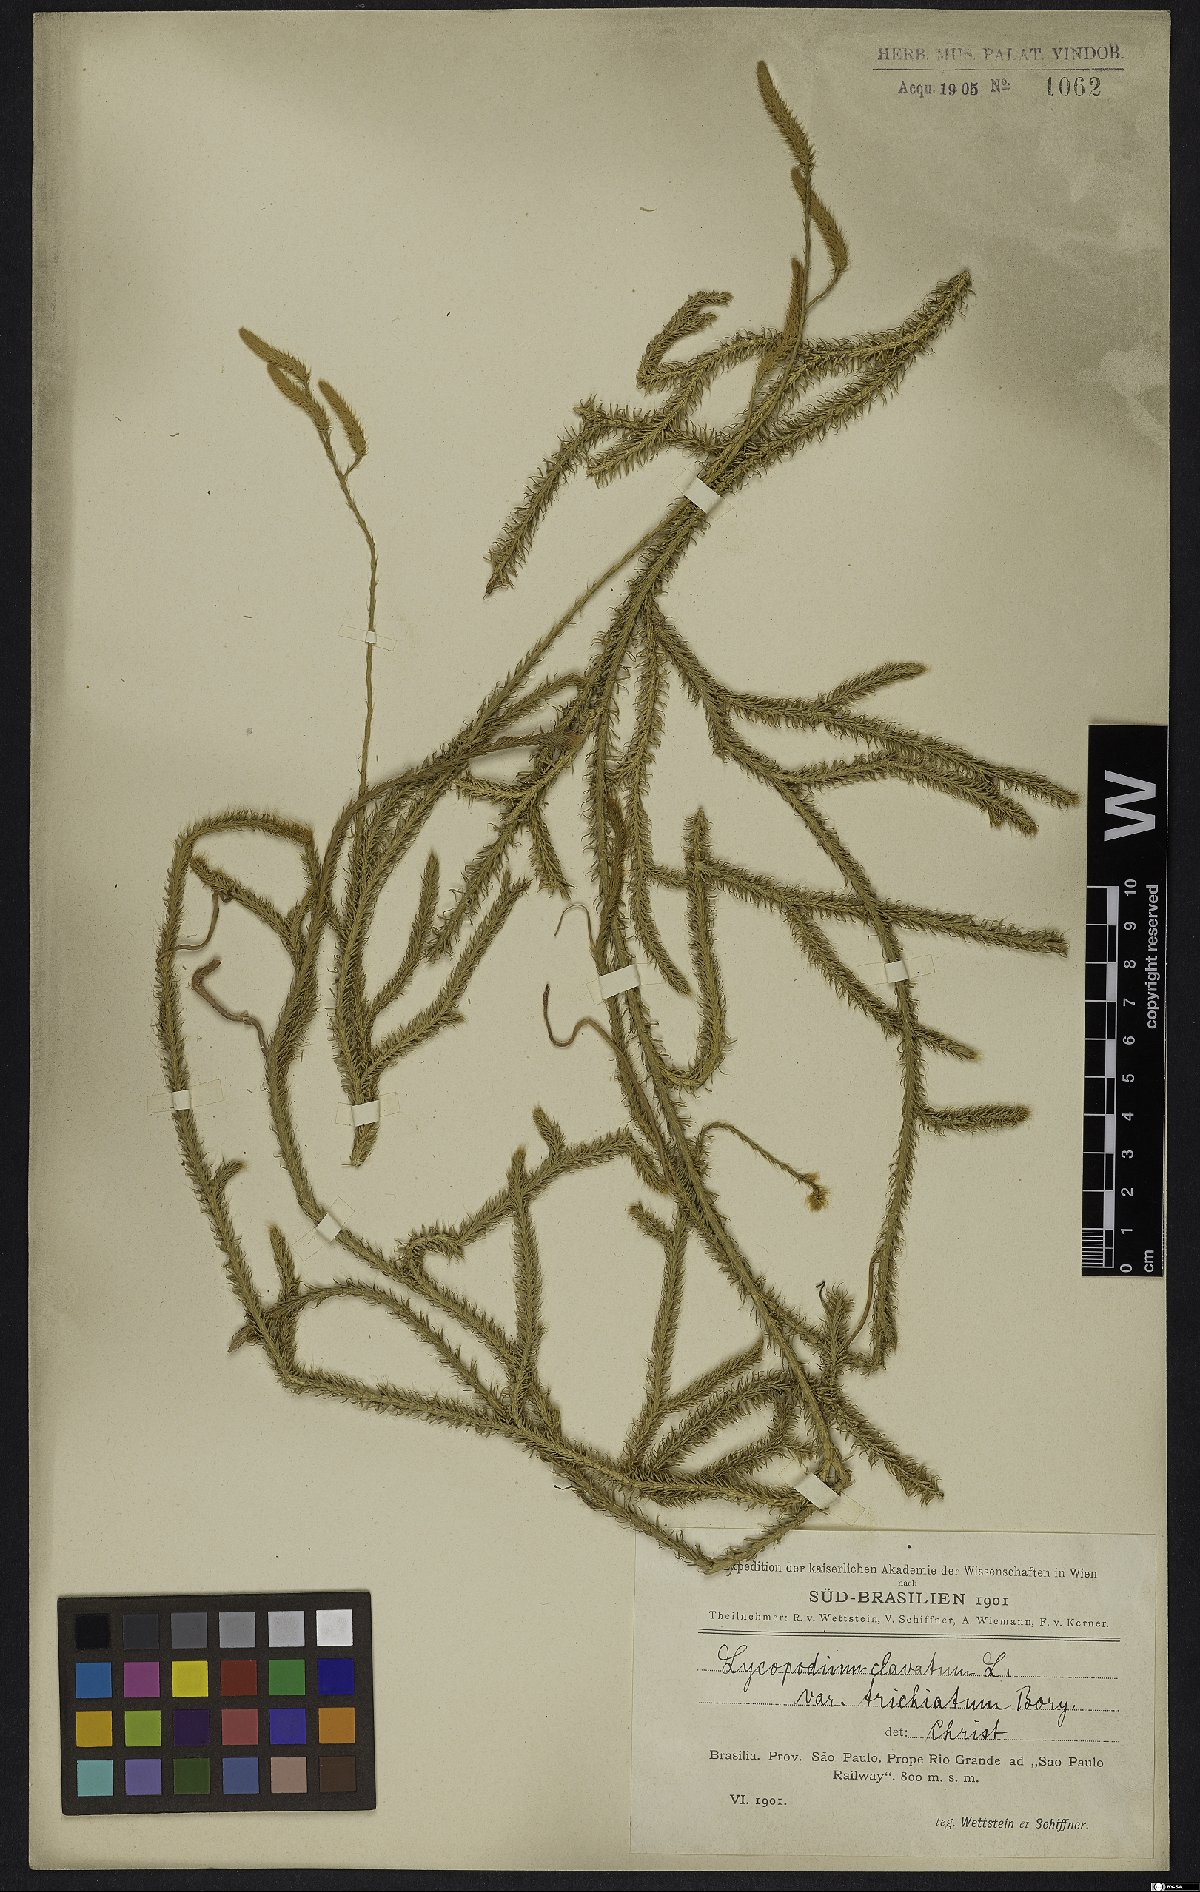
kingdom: Plantae
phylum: Tracheophyta
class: Lycopodiopsida
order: Lycopodiales
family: Lycopodiaceae
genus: Lycopodium
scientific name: Lycopodium clavatum
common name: Stag's-horn clubmoss
